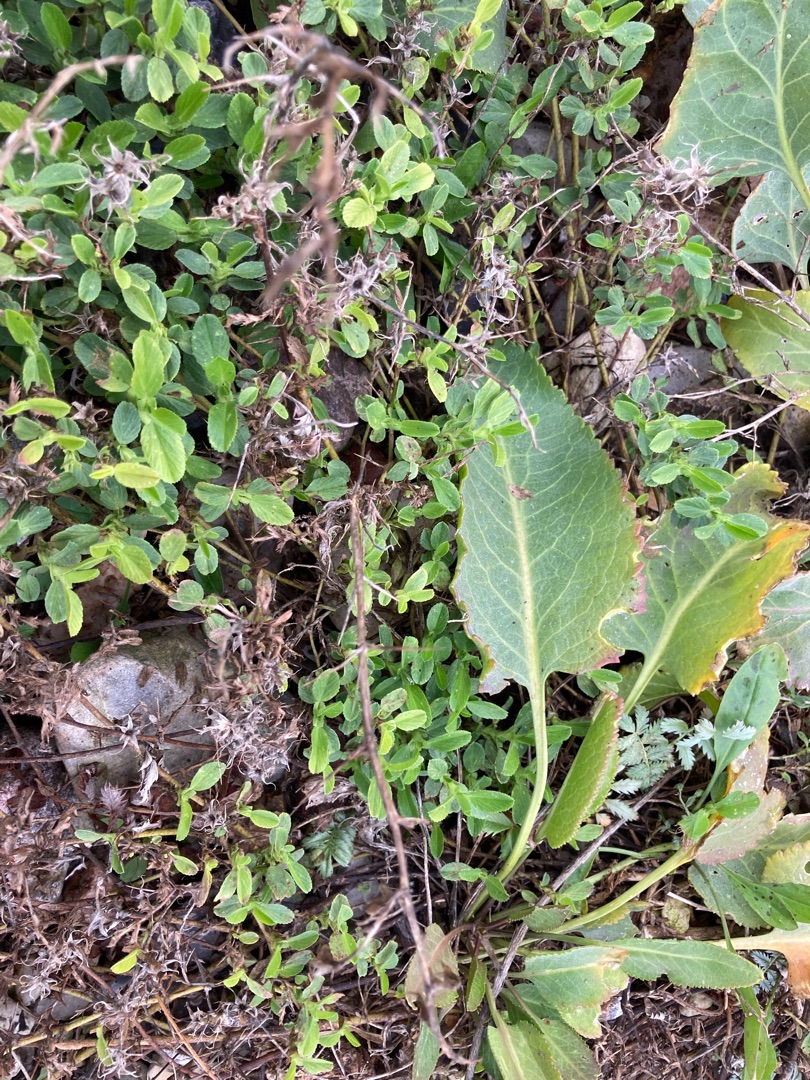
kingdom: Plantae
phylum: Tracheophyta
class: Magnoliopsida
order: Fabales
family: Fabaceae
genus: Ononis
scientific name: Ononis spinosa
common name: Mark-krageklo
